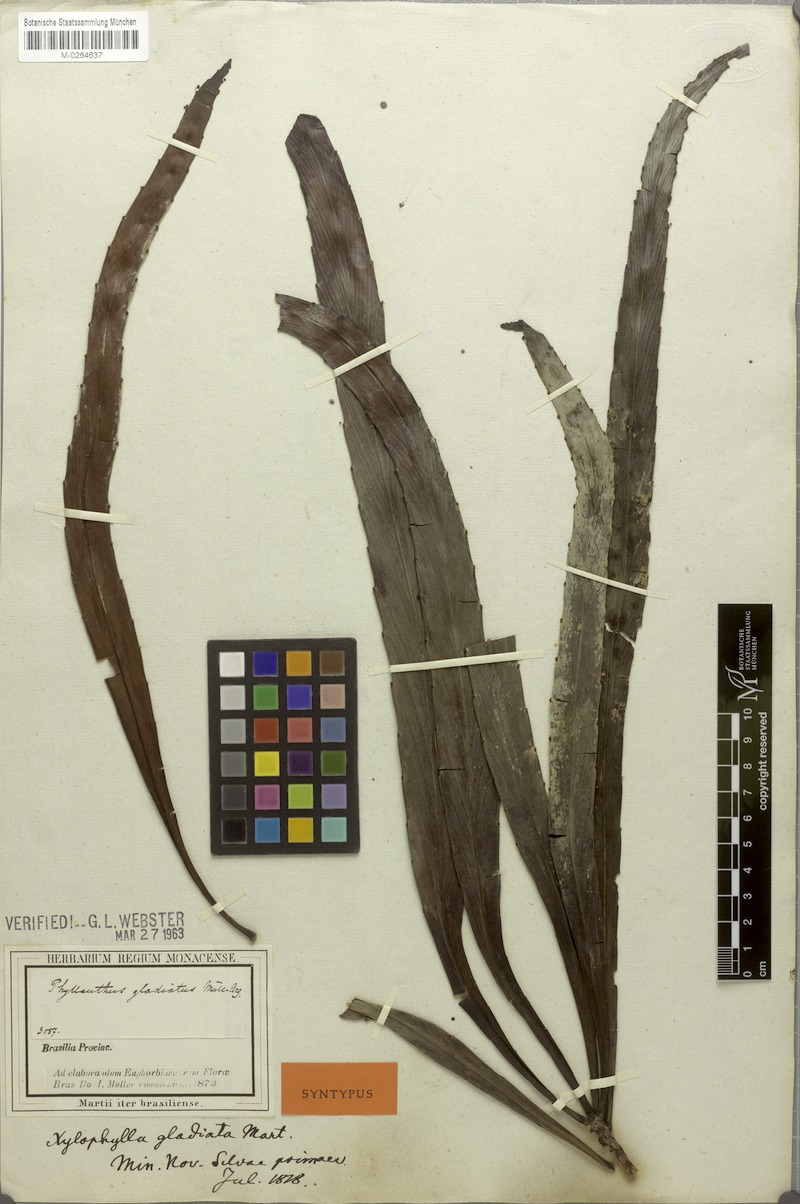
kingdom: Plantae
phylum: Tracheophyta
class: Magnoliopsida
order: Malpighiales
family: Phyllanthaceae
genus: Phyllanthus
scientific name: Phyllanthus gladiatus
